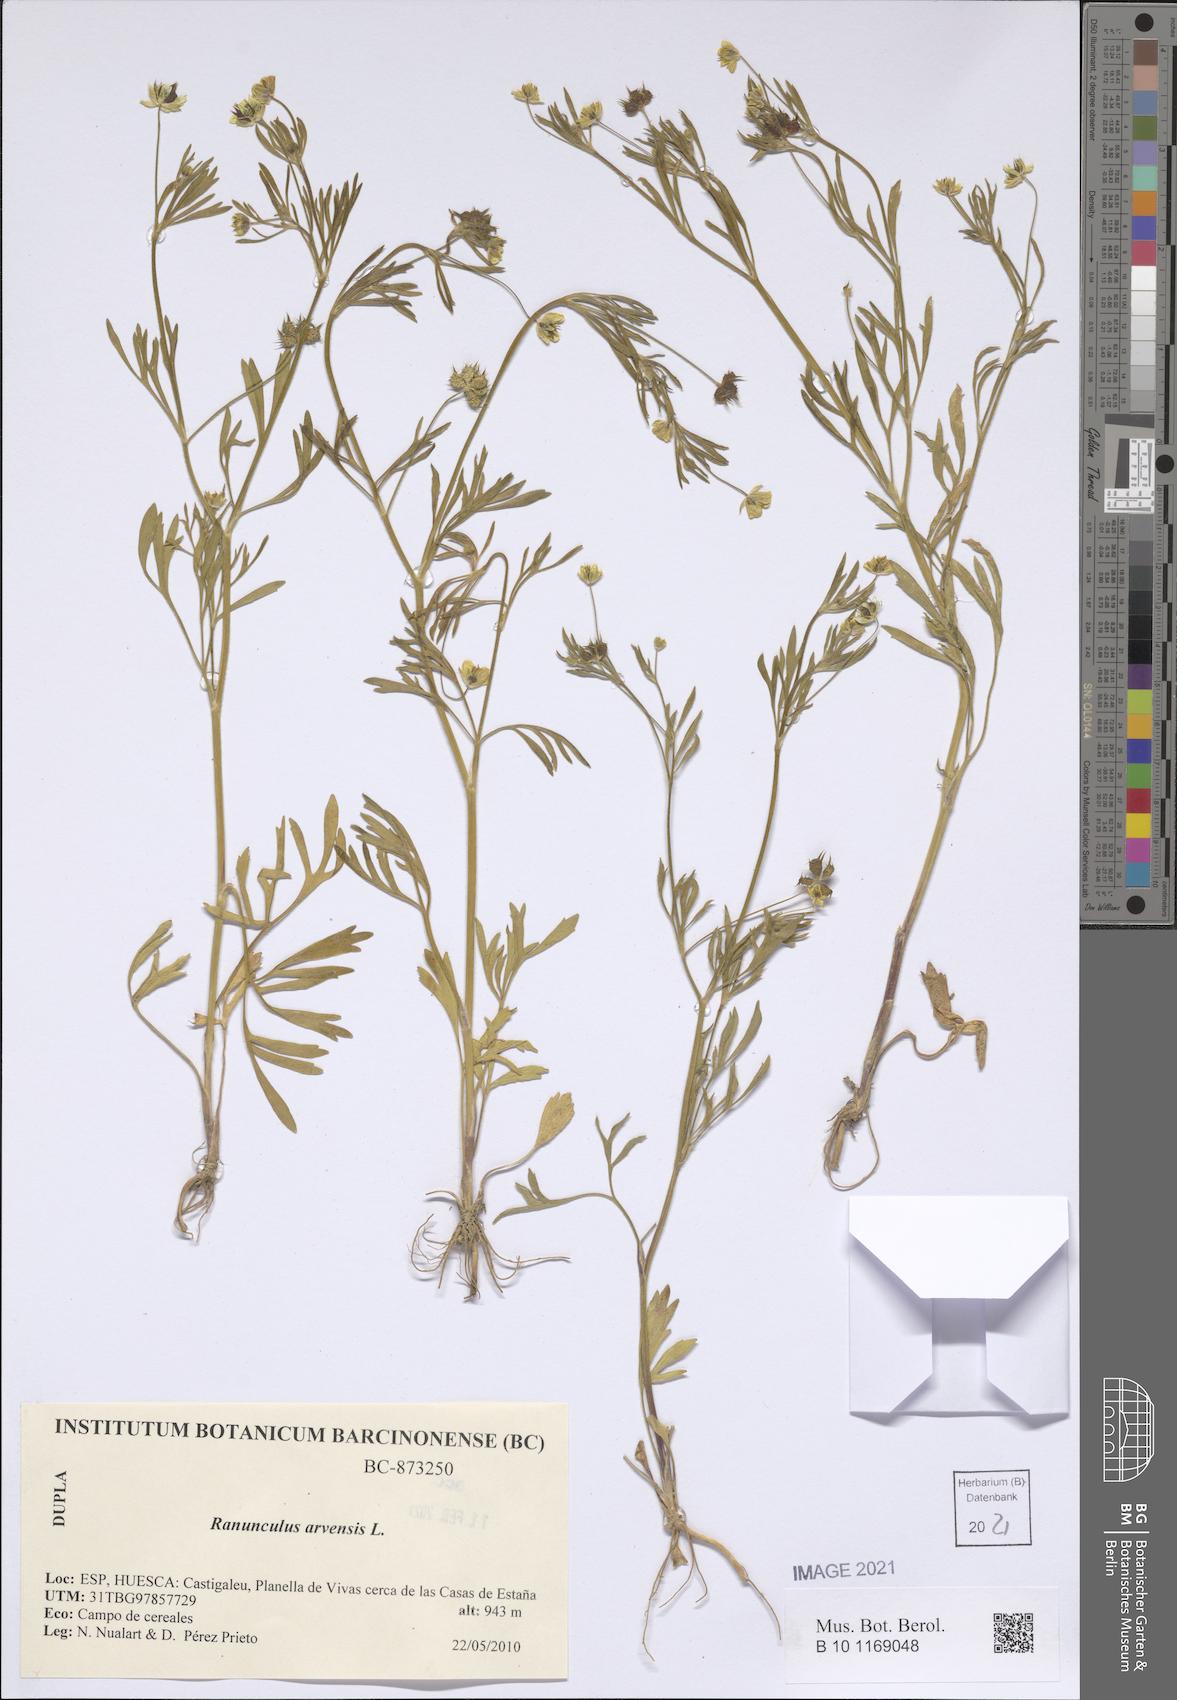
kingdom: Plantae
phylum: Tracheophyta
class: Magnoliopsida
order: Ranunculales
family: Ranunculaceae
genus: Ranunculus
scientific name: Ranunculus arvensis
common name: Corn buttercup
